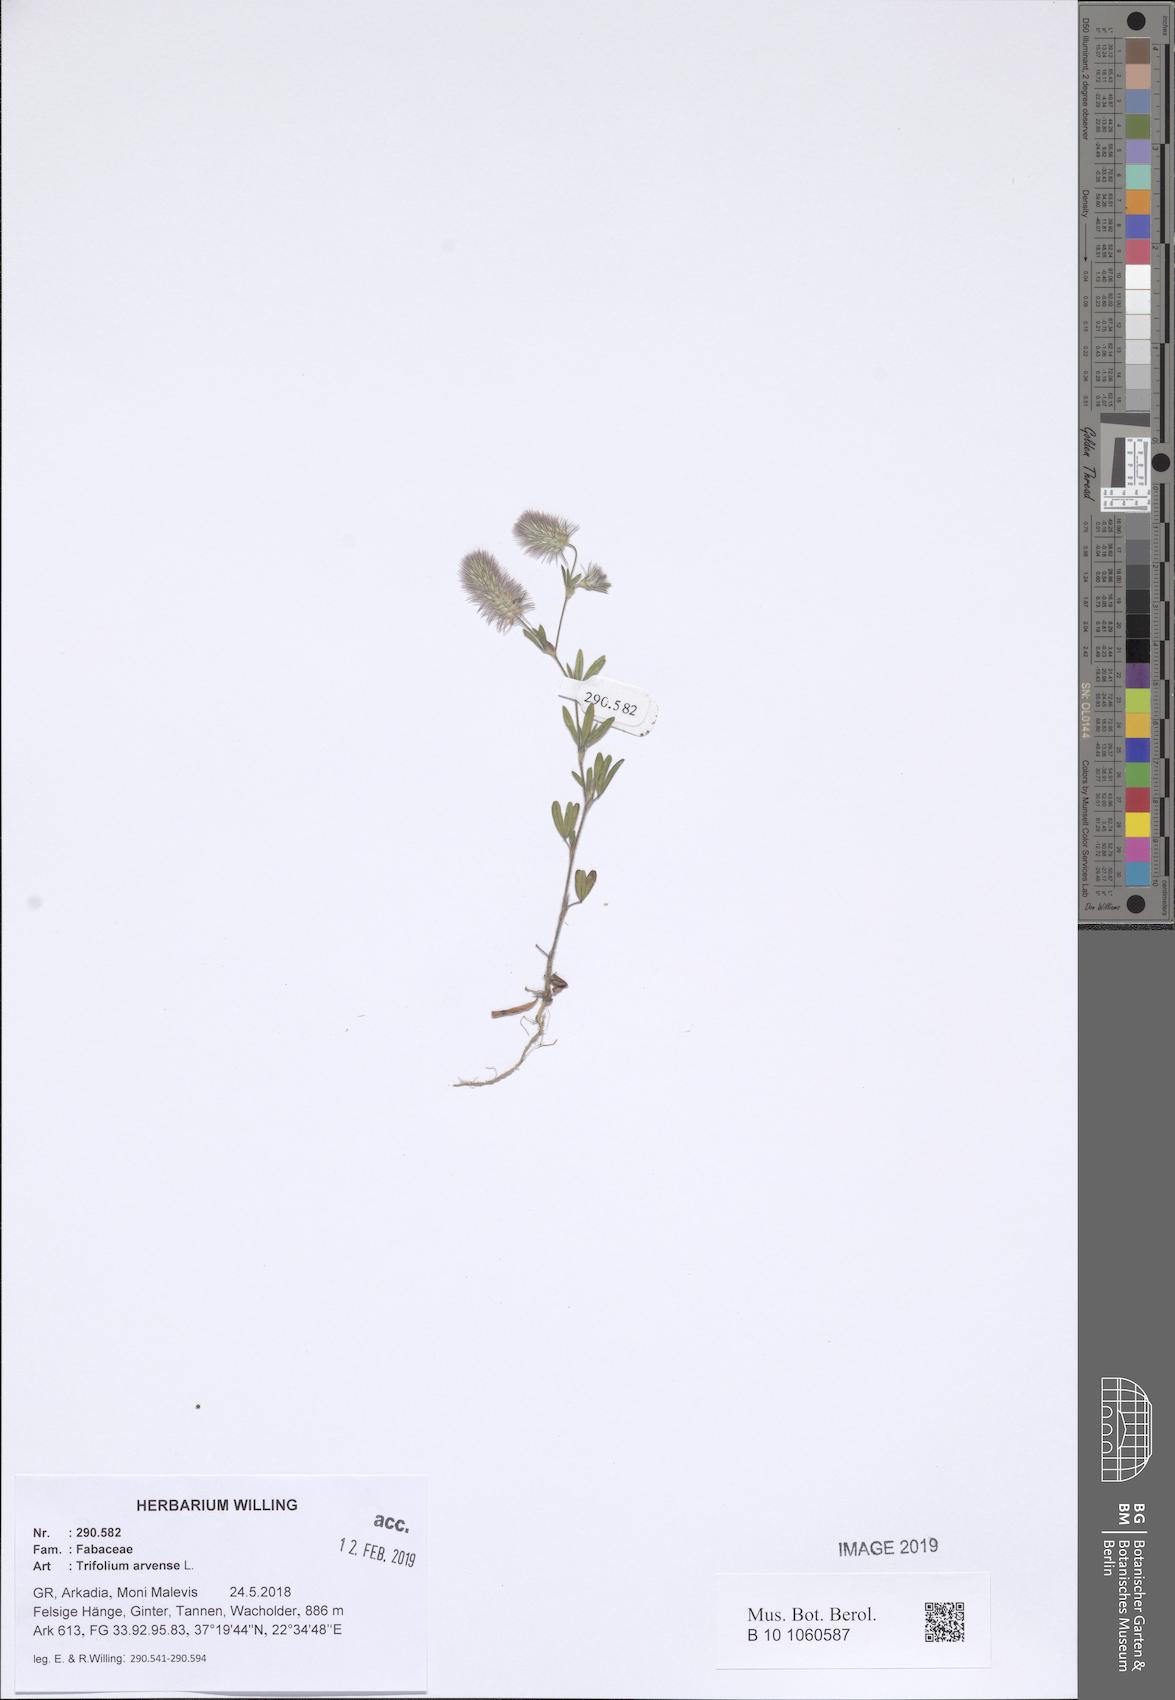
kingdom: Plantae
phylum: Tracheophyta
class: Magnoliopsida
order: Fabales
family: Fabaceae
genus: Trifolium
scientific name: Trifolium arvense
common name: Hare's-foot clover
